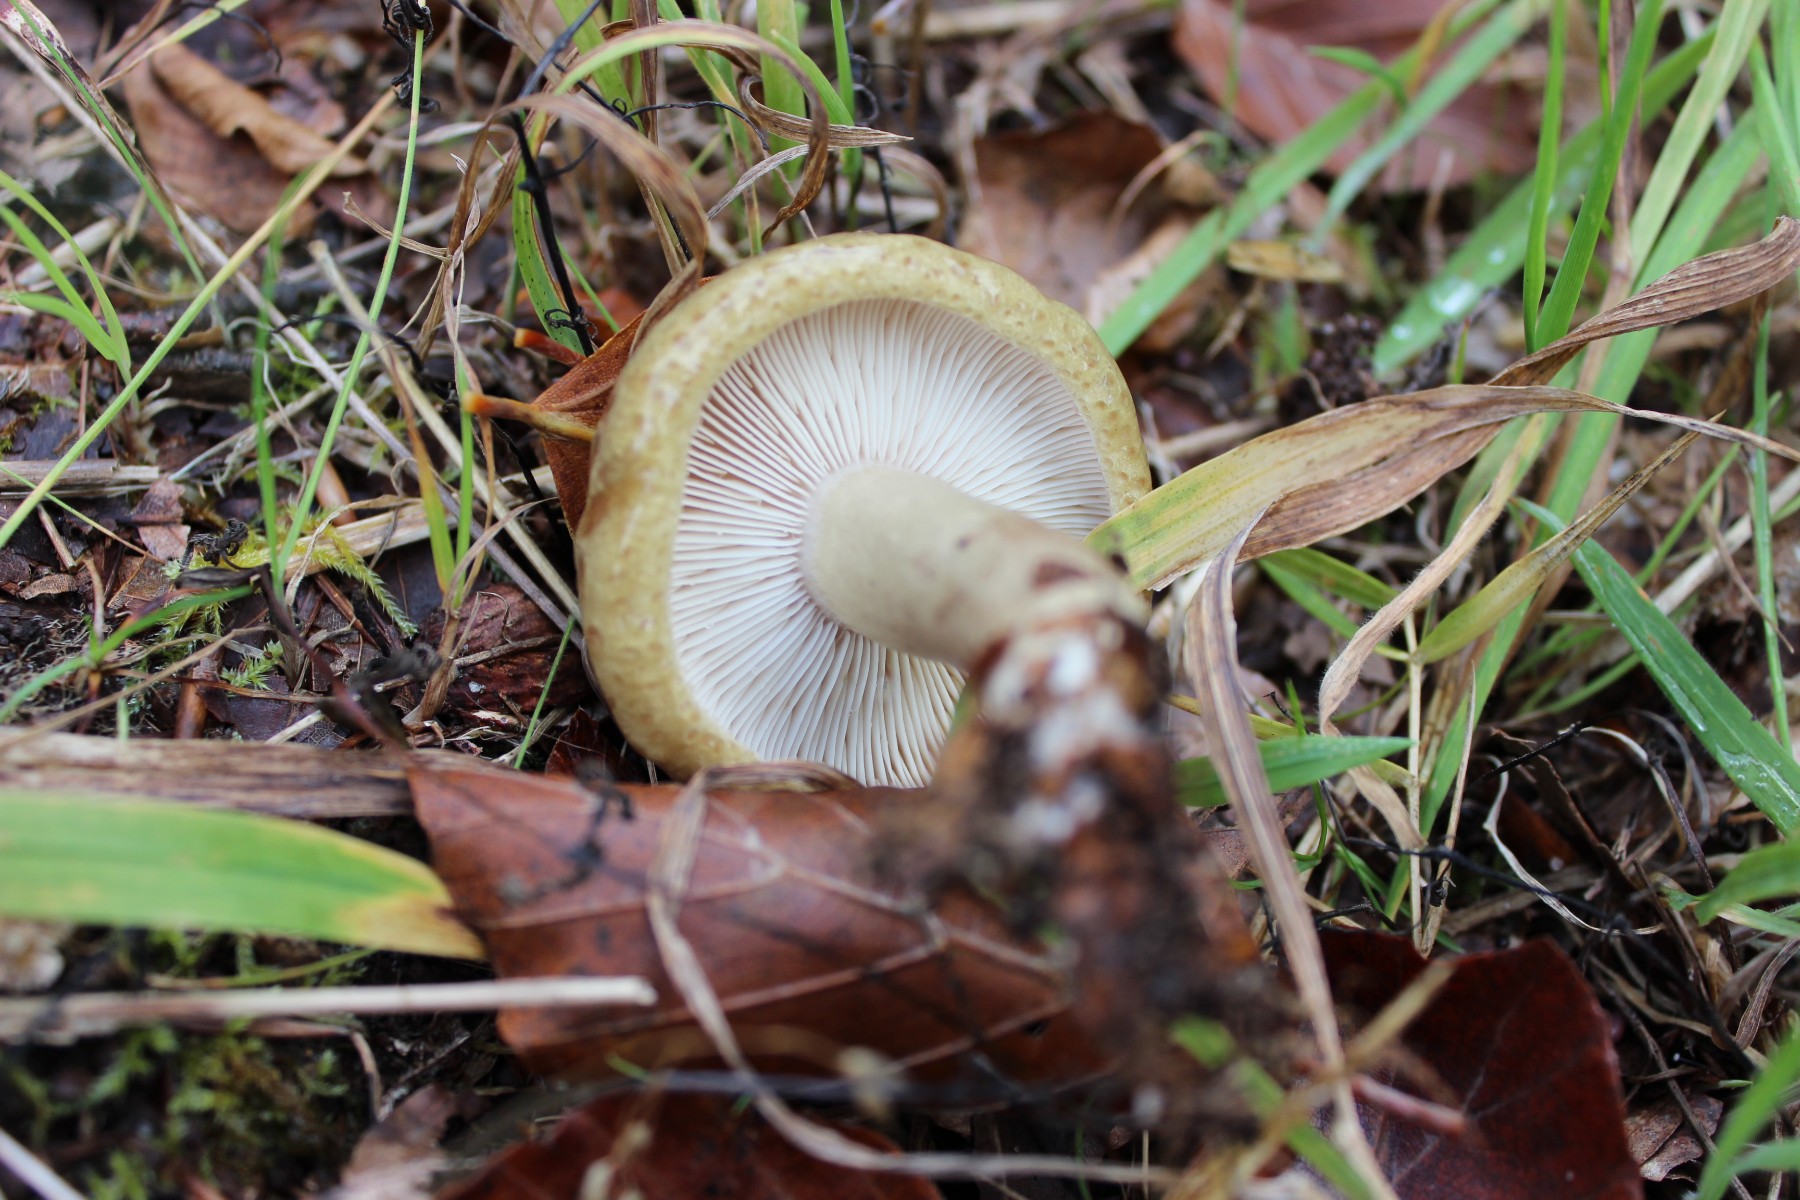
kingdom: Fungi
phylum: Basidiomycota
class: Agaricomycetes
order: Russulales
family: Russulaceae
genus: Lactarius
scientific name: Lactarius blennius
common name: dråbeplettet mælkehat
